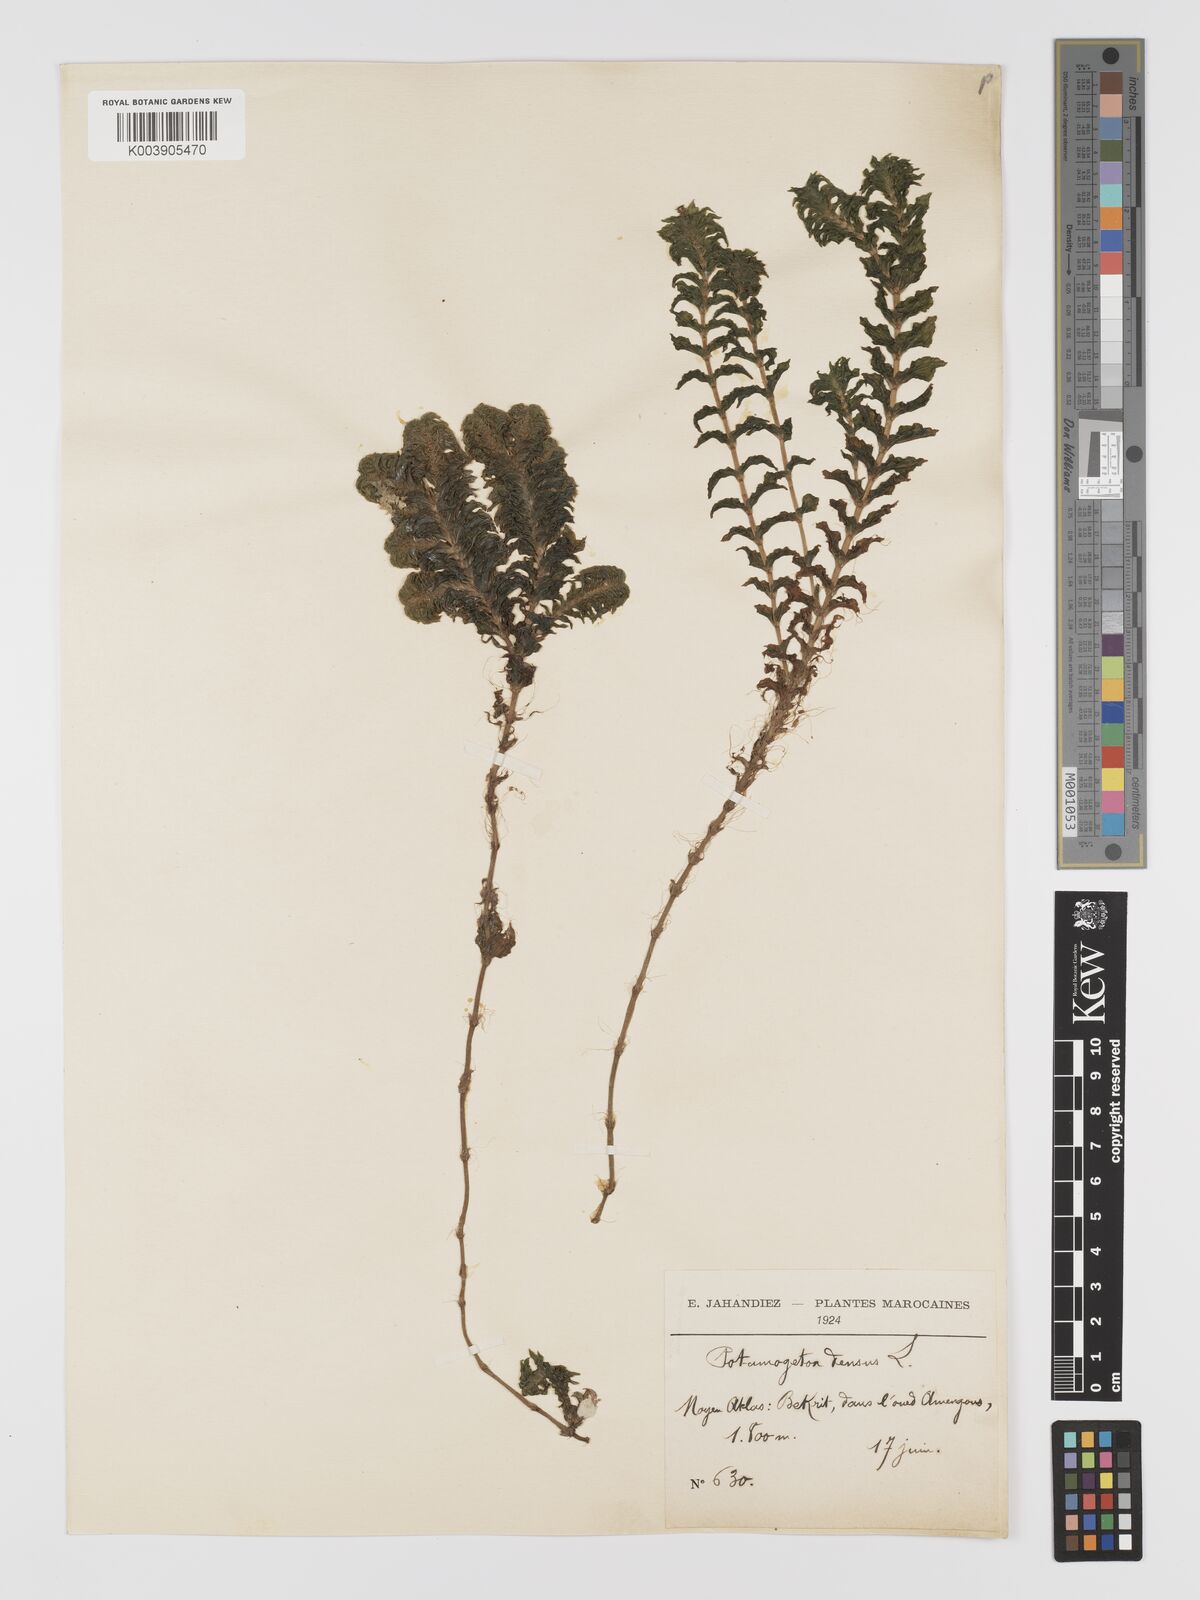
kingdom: Plantae
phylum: Tracheophyta
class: Liliopsida
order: Alismatales
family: Potamogetonaceae
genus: Groenlandia
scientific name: Groenlandia densa
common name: Opposite-leaved pondweed
